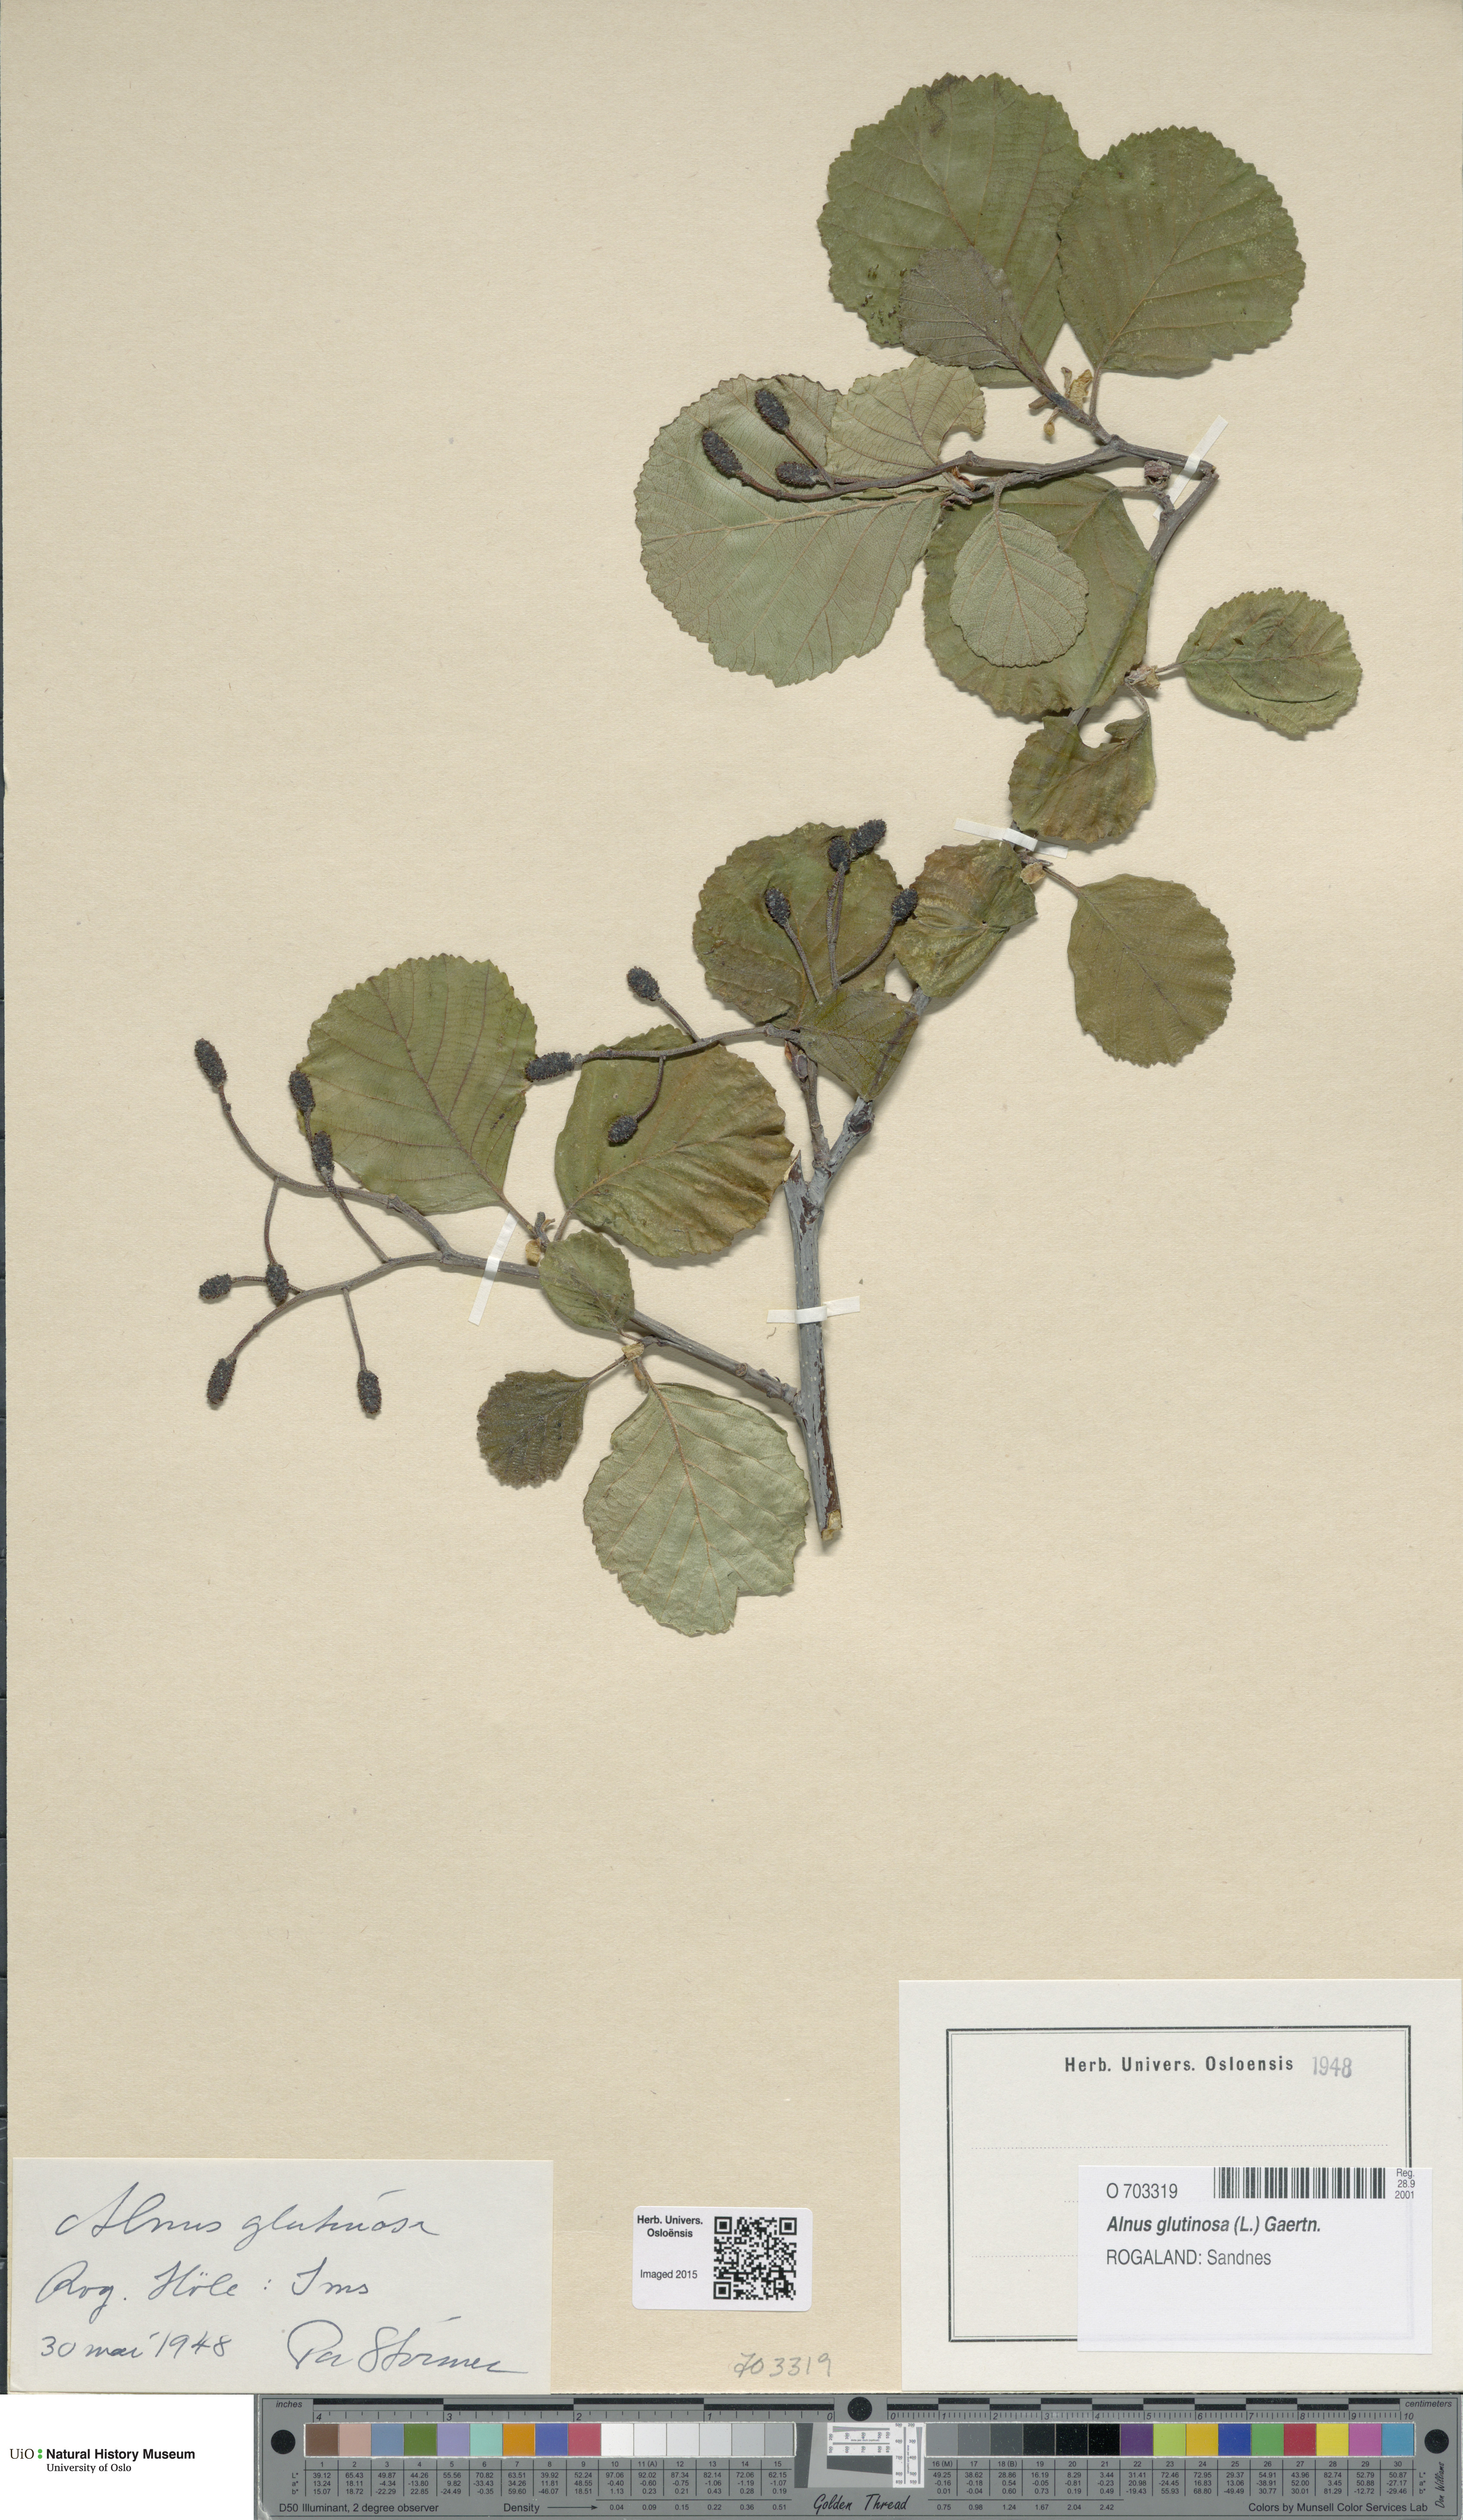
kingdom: Plantae
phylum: Tracheophyta
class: Magnoliopsida
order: Fagales
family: Betulaceae
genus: Alnus
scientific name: Alnus glutinosa
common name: Black alder
